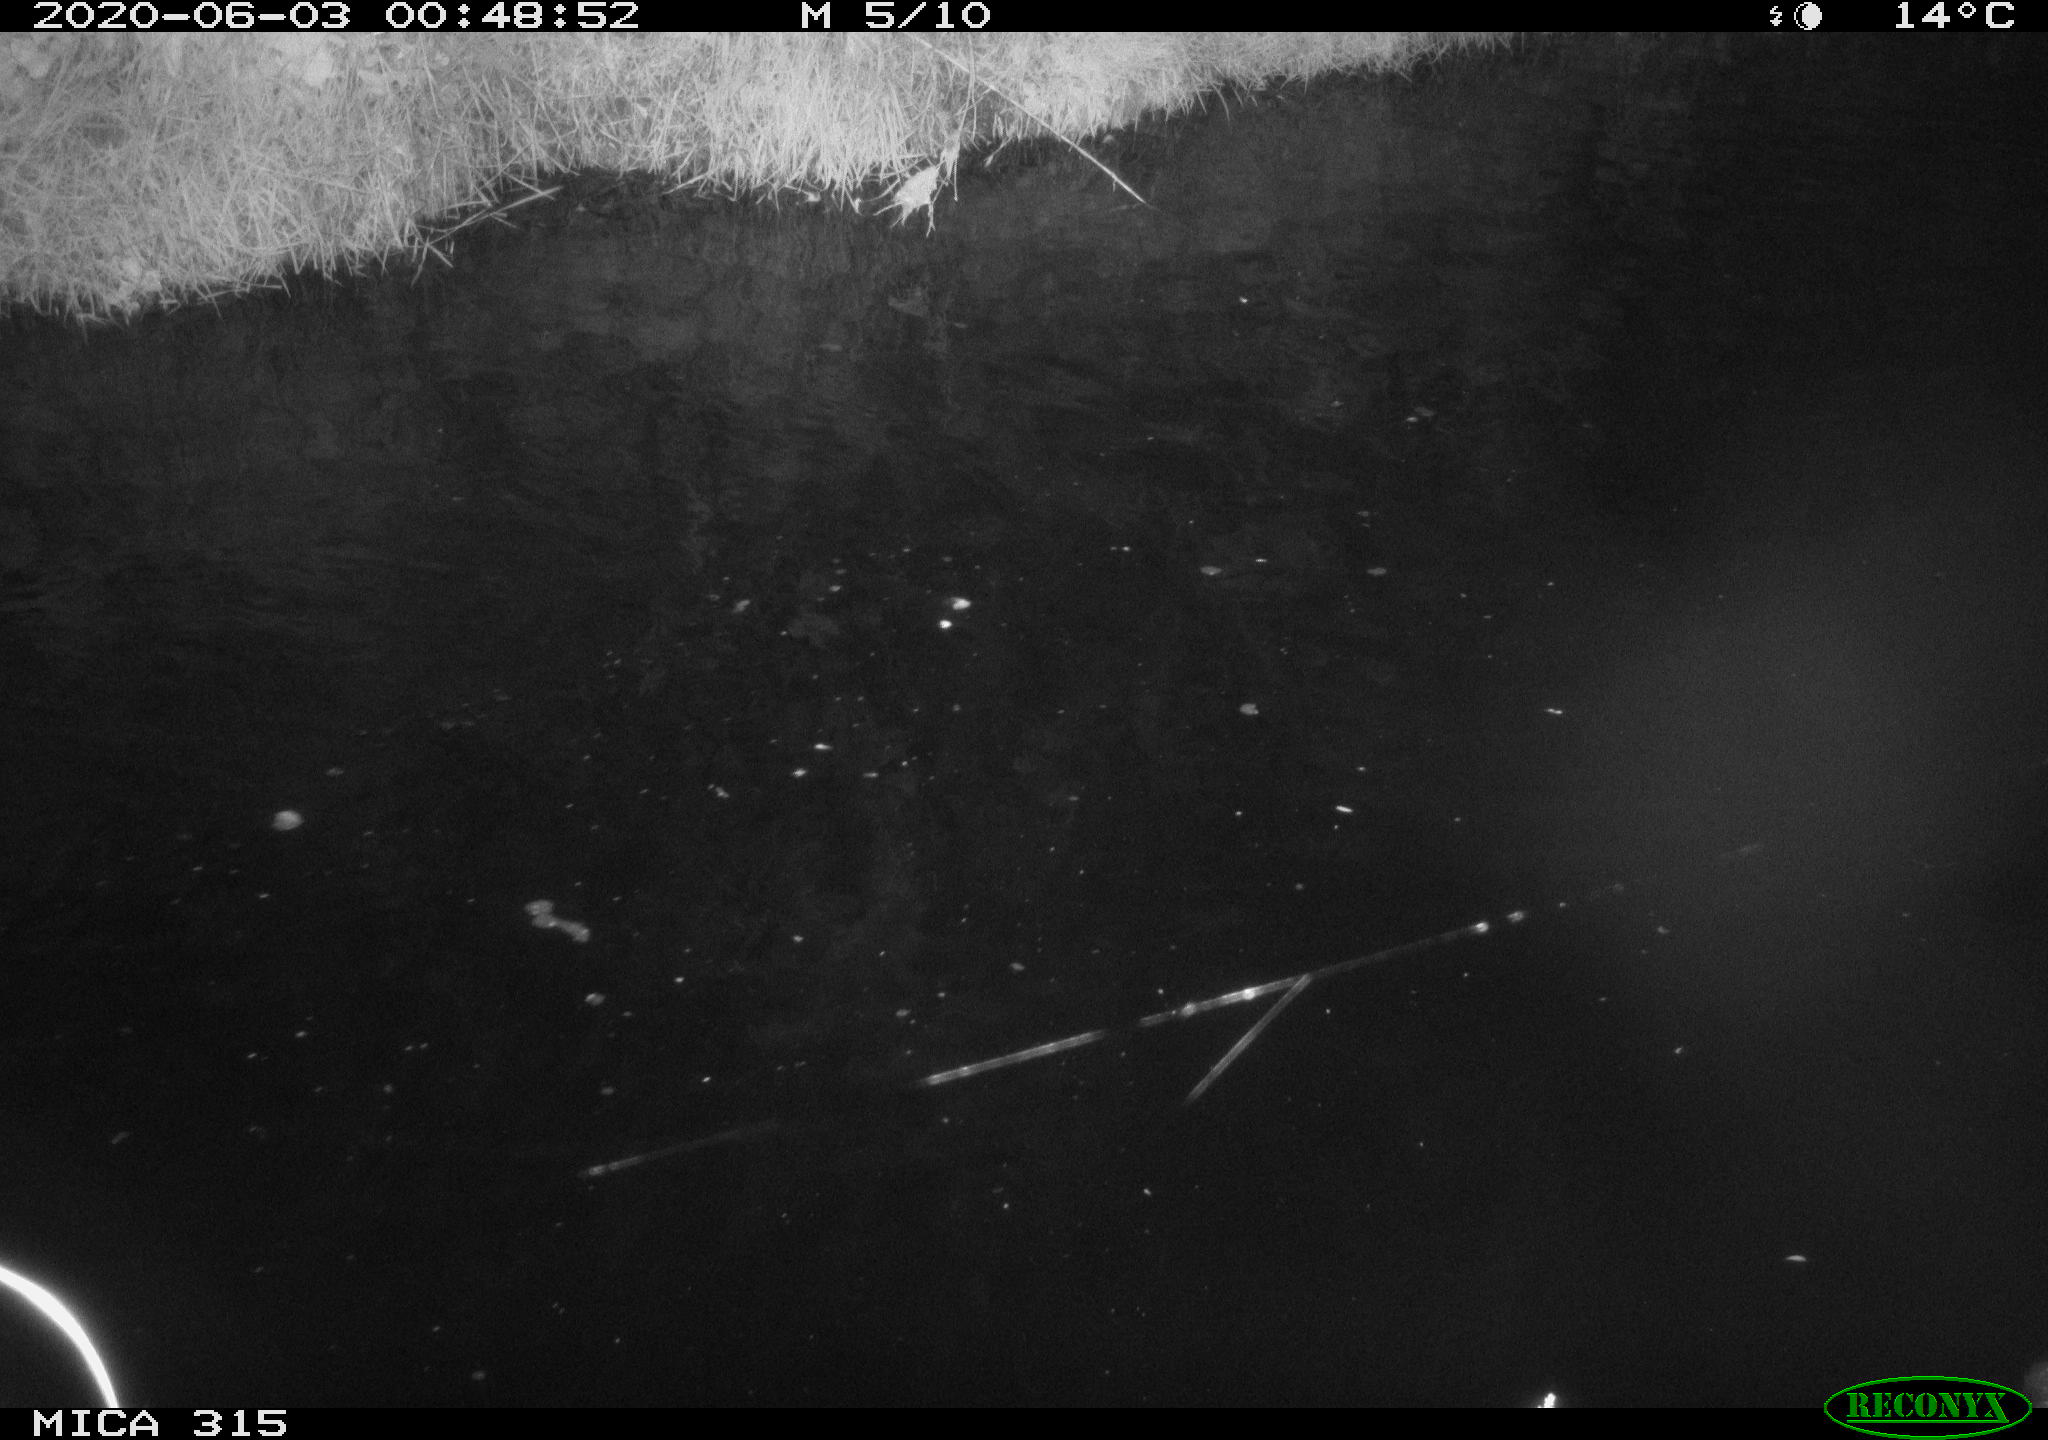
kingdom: Animalia
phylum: Chordata
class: Aves
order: Anseriformes
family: Anatidae
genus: Anas
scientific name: Anas platyrhynchos
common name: Mallard
